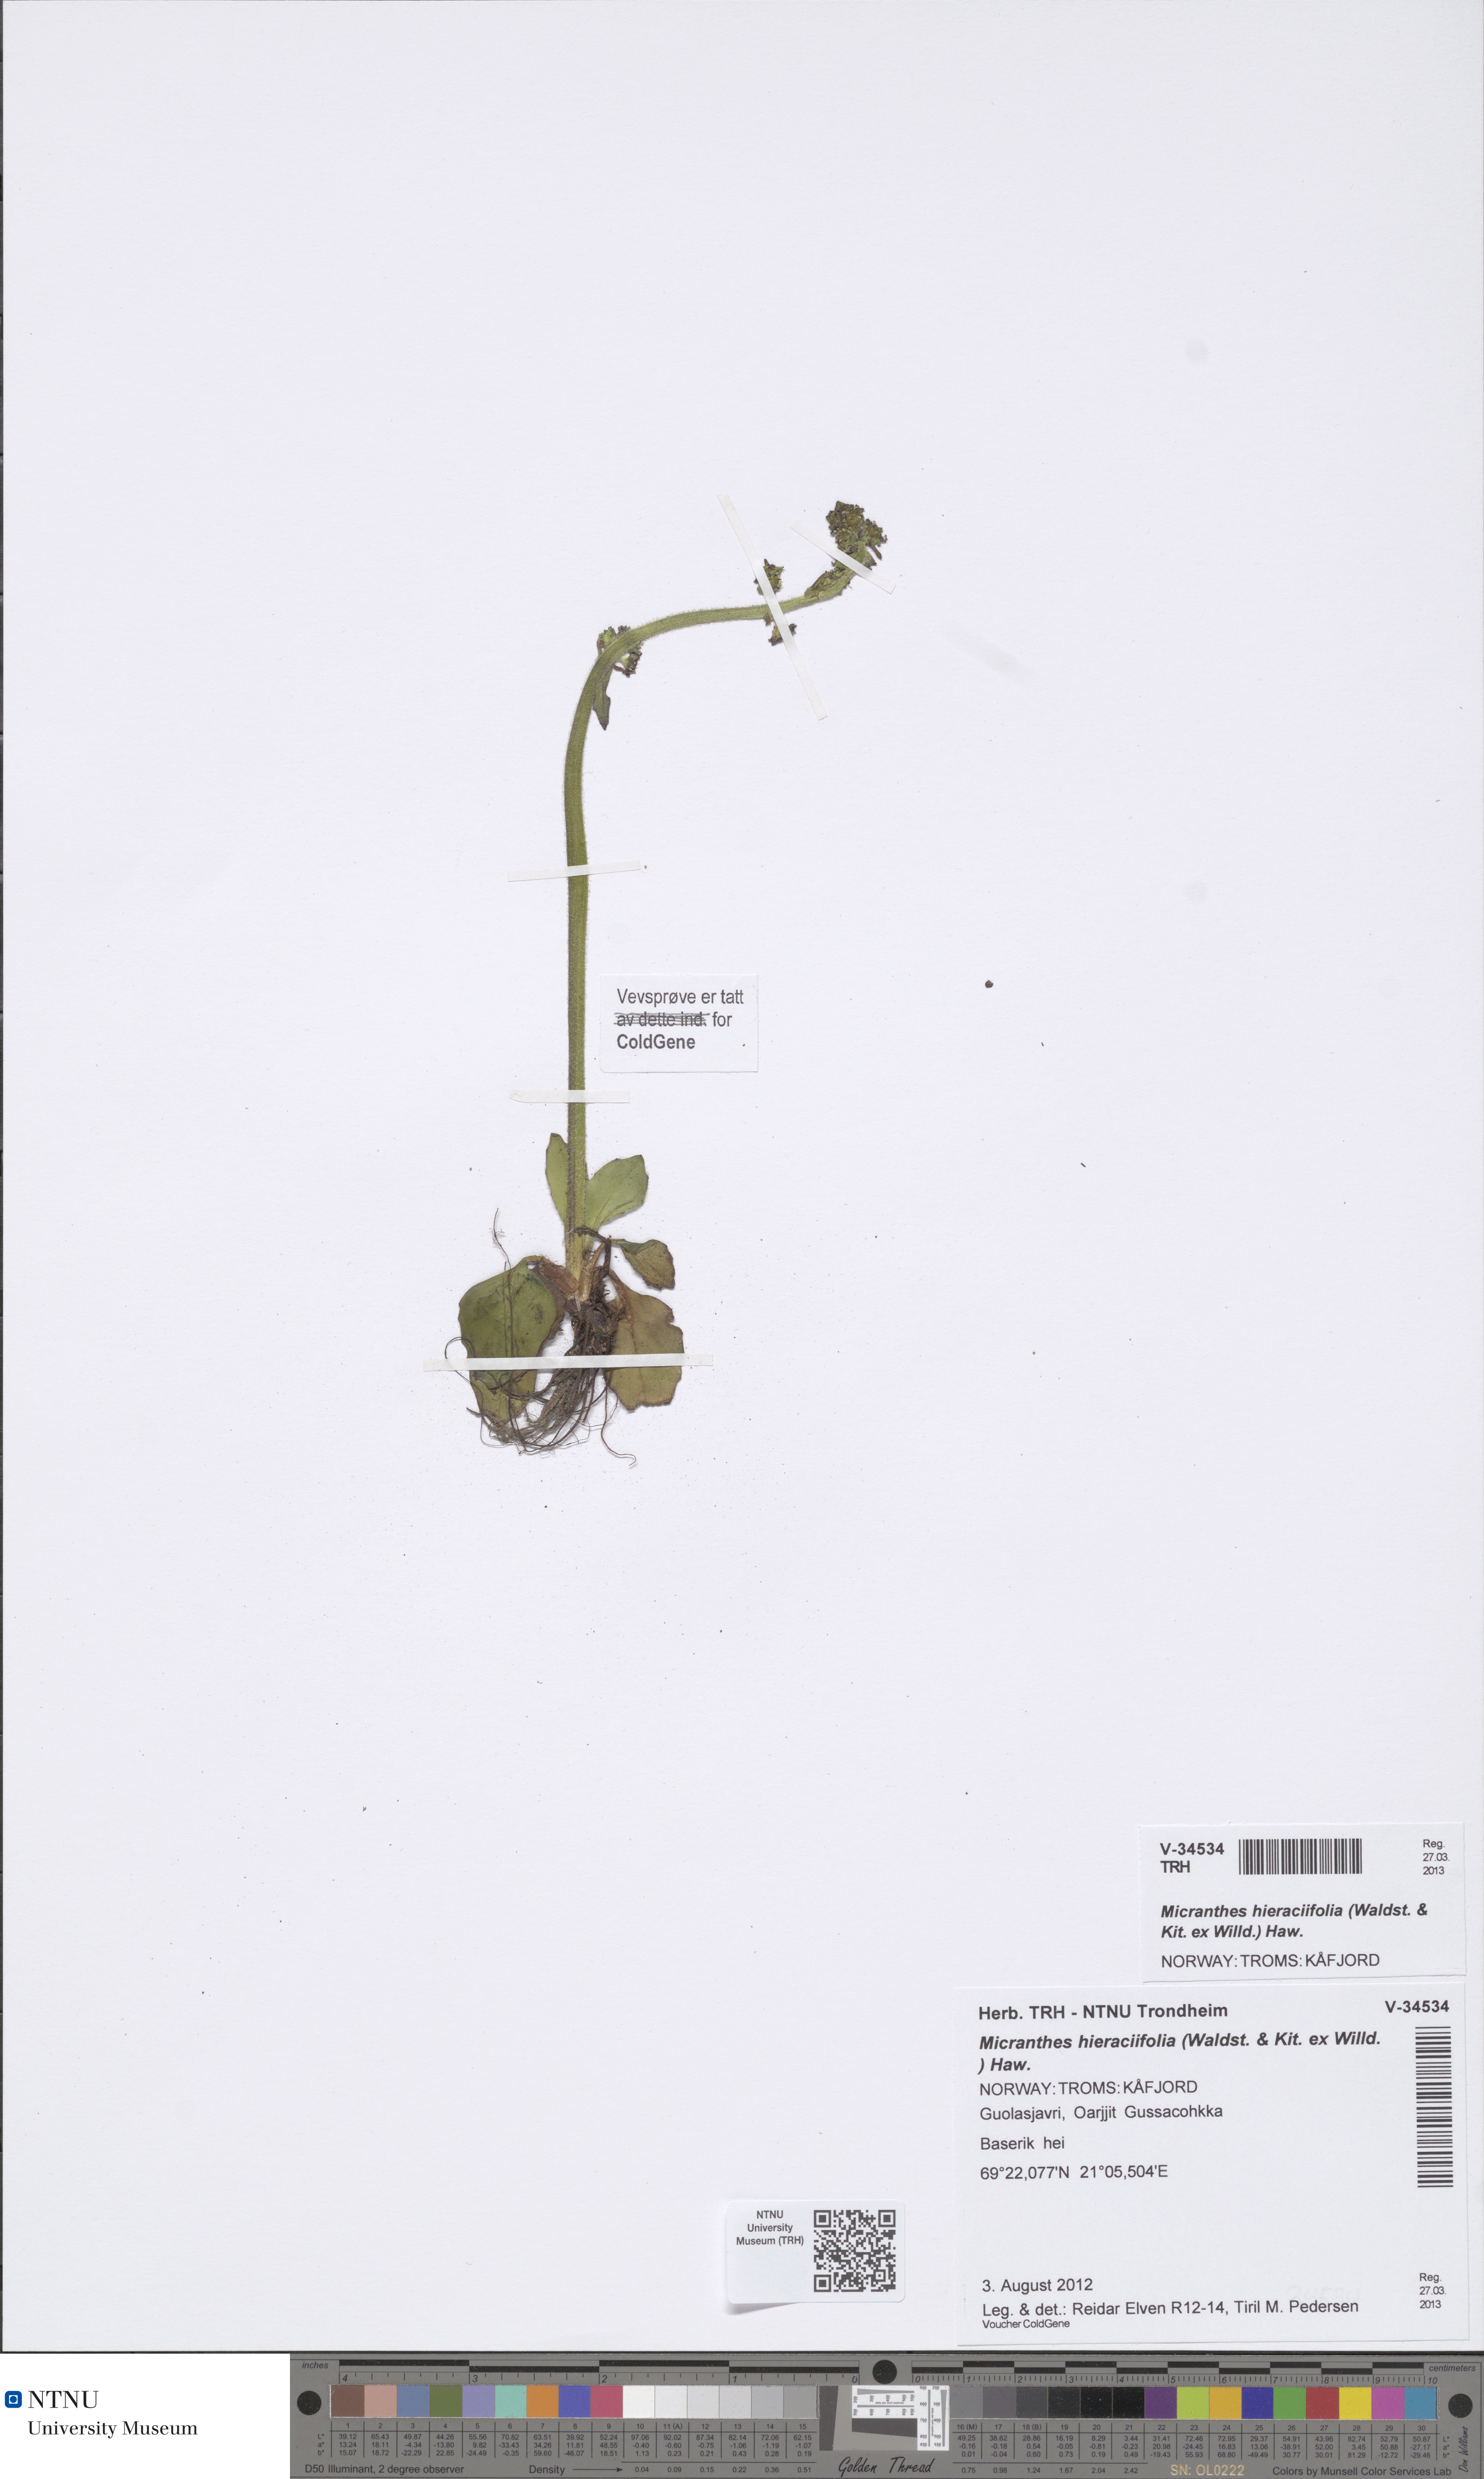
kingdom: Plantae
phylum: Tracheophyta
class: Magnoliopsida
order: Saxifragales
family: Saxifragaceae
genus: Micranthes
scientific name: Micranthes hieraciifolia
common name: Hawkweed-leaved saxifrage
